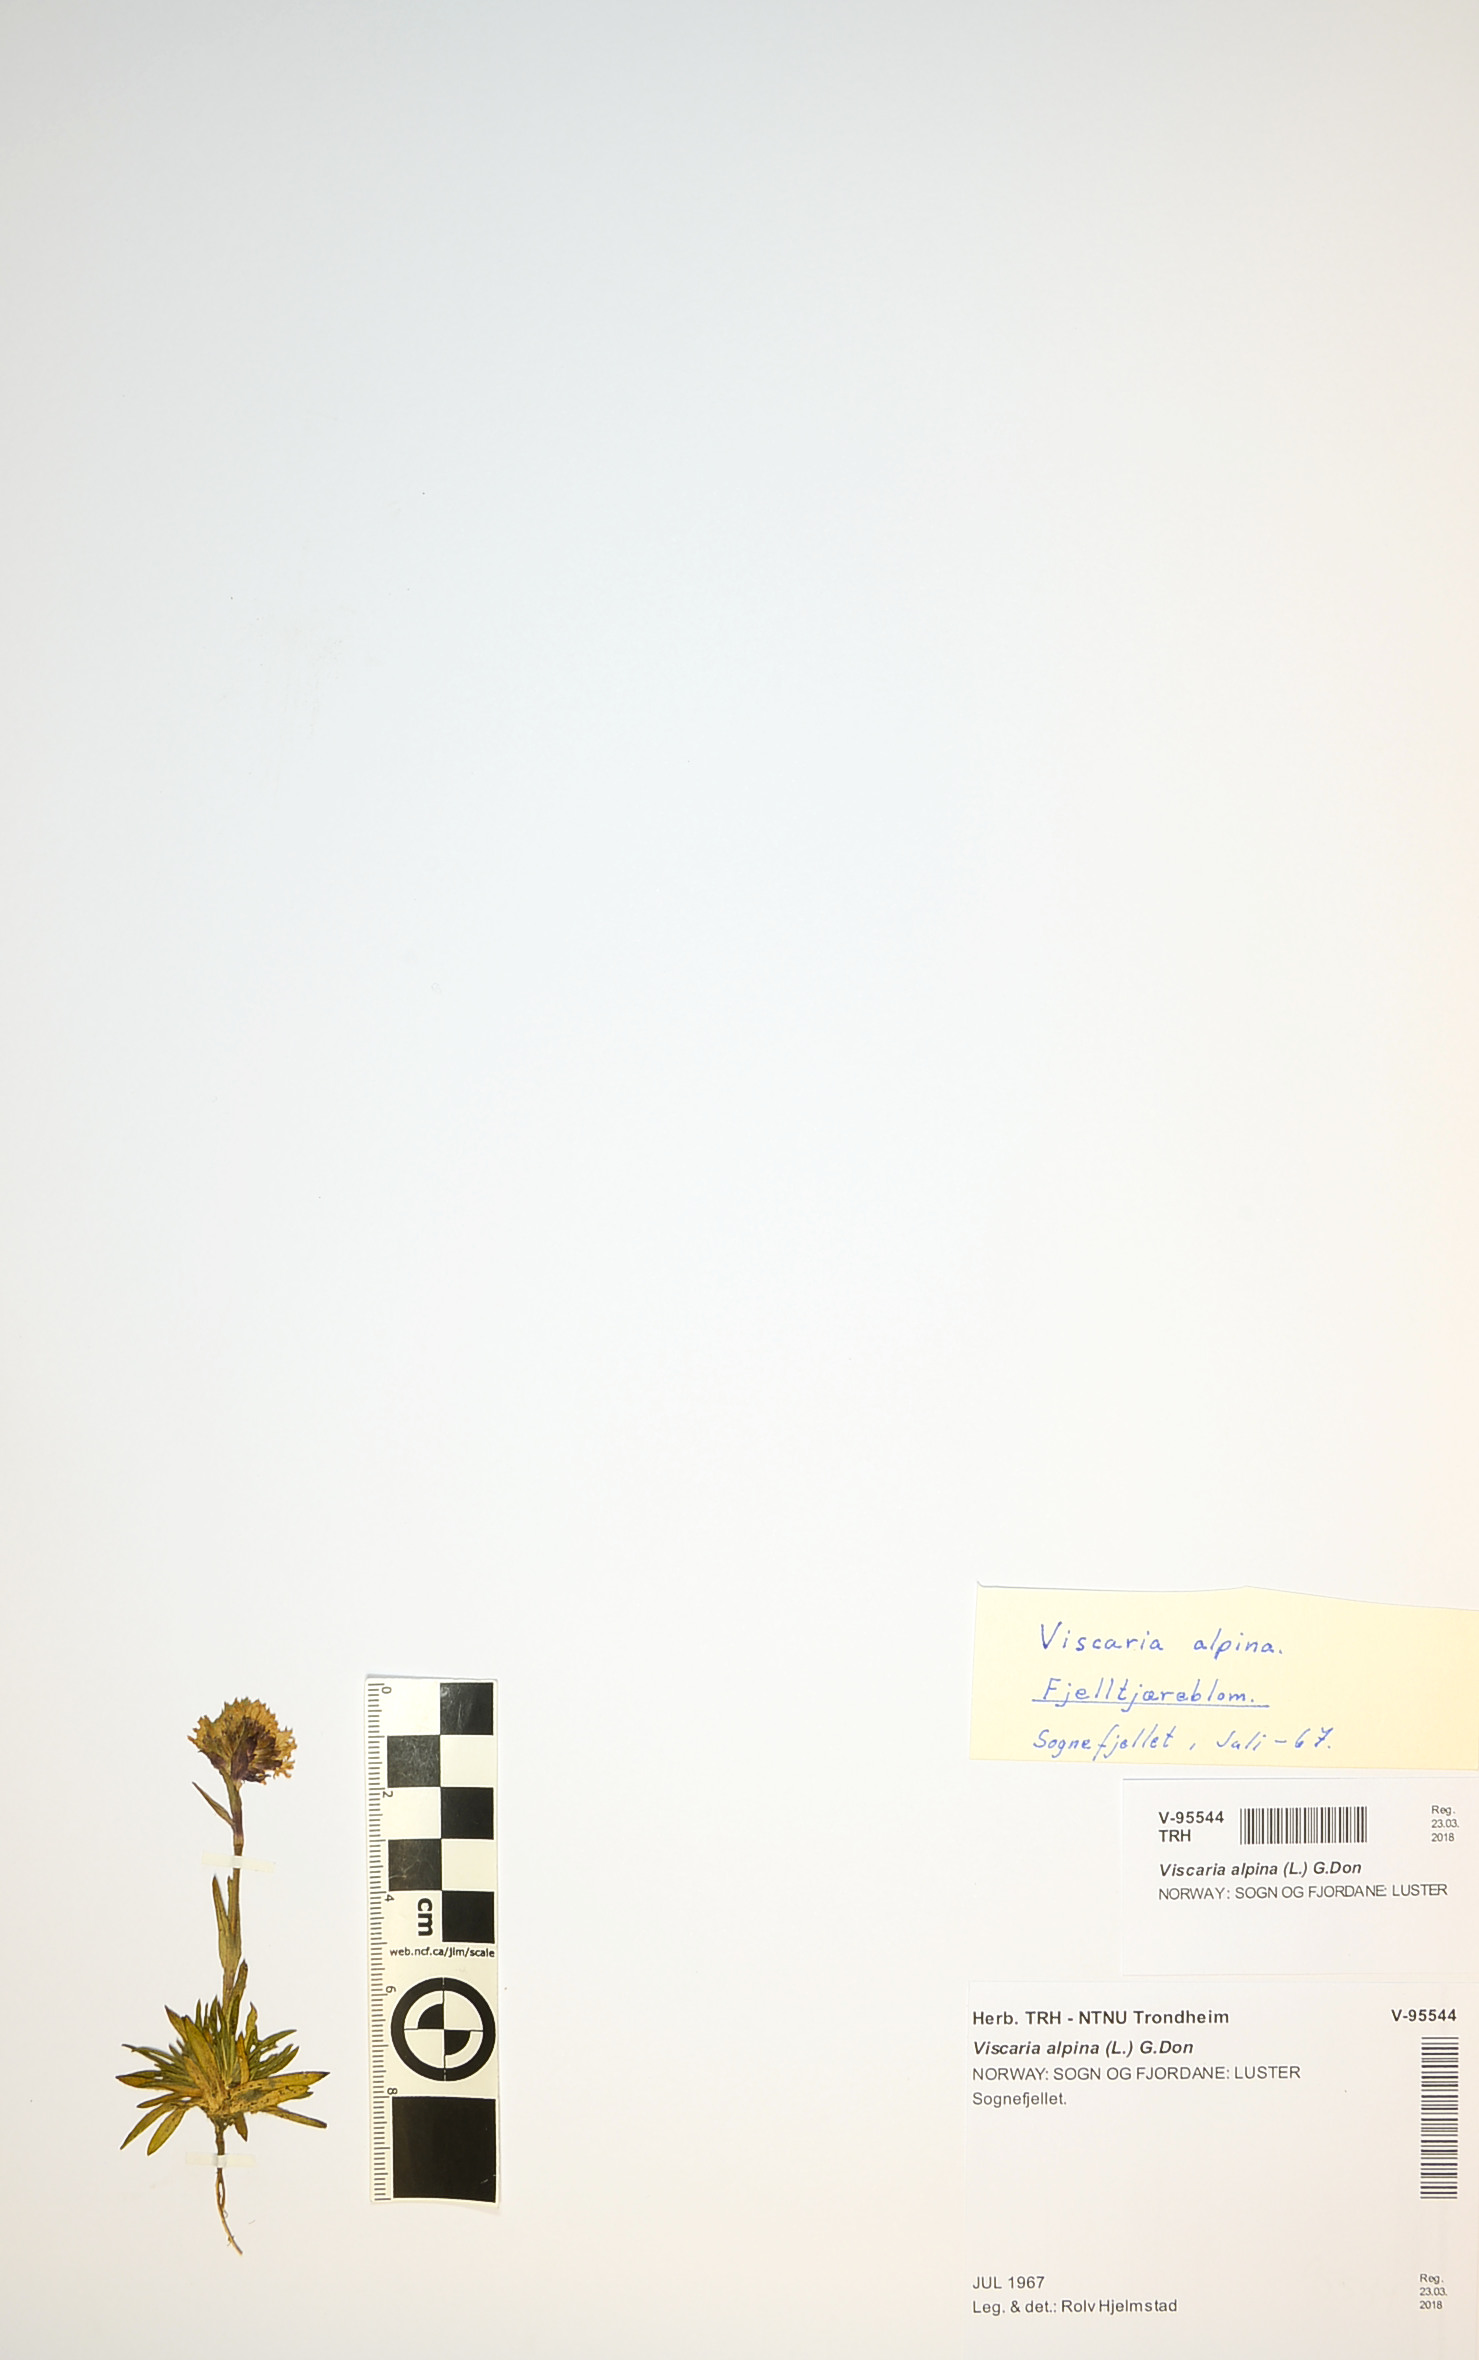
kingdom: Plantae
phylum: Tracheophyta
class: Magnoliopsida
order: Caryophyllales
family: Caryophyllaceae
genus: Viscaria
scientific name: Viscaria alpina
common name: Alpine campion
